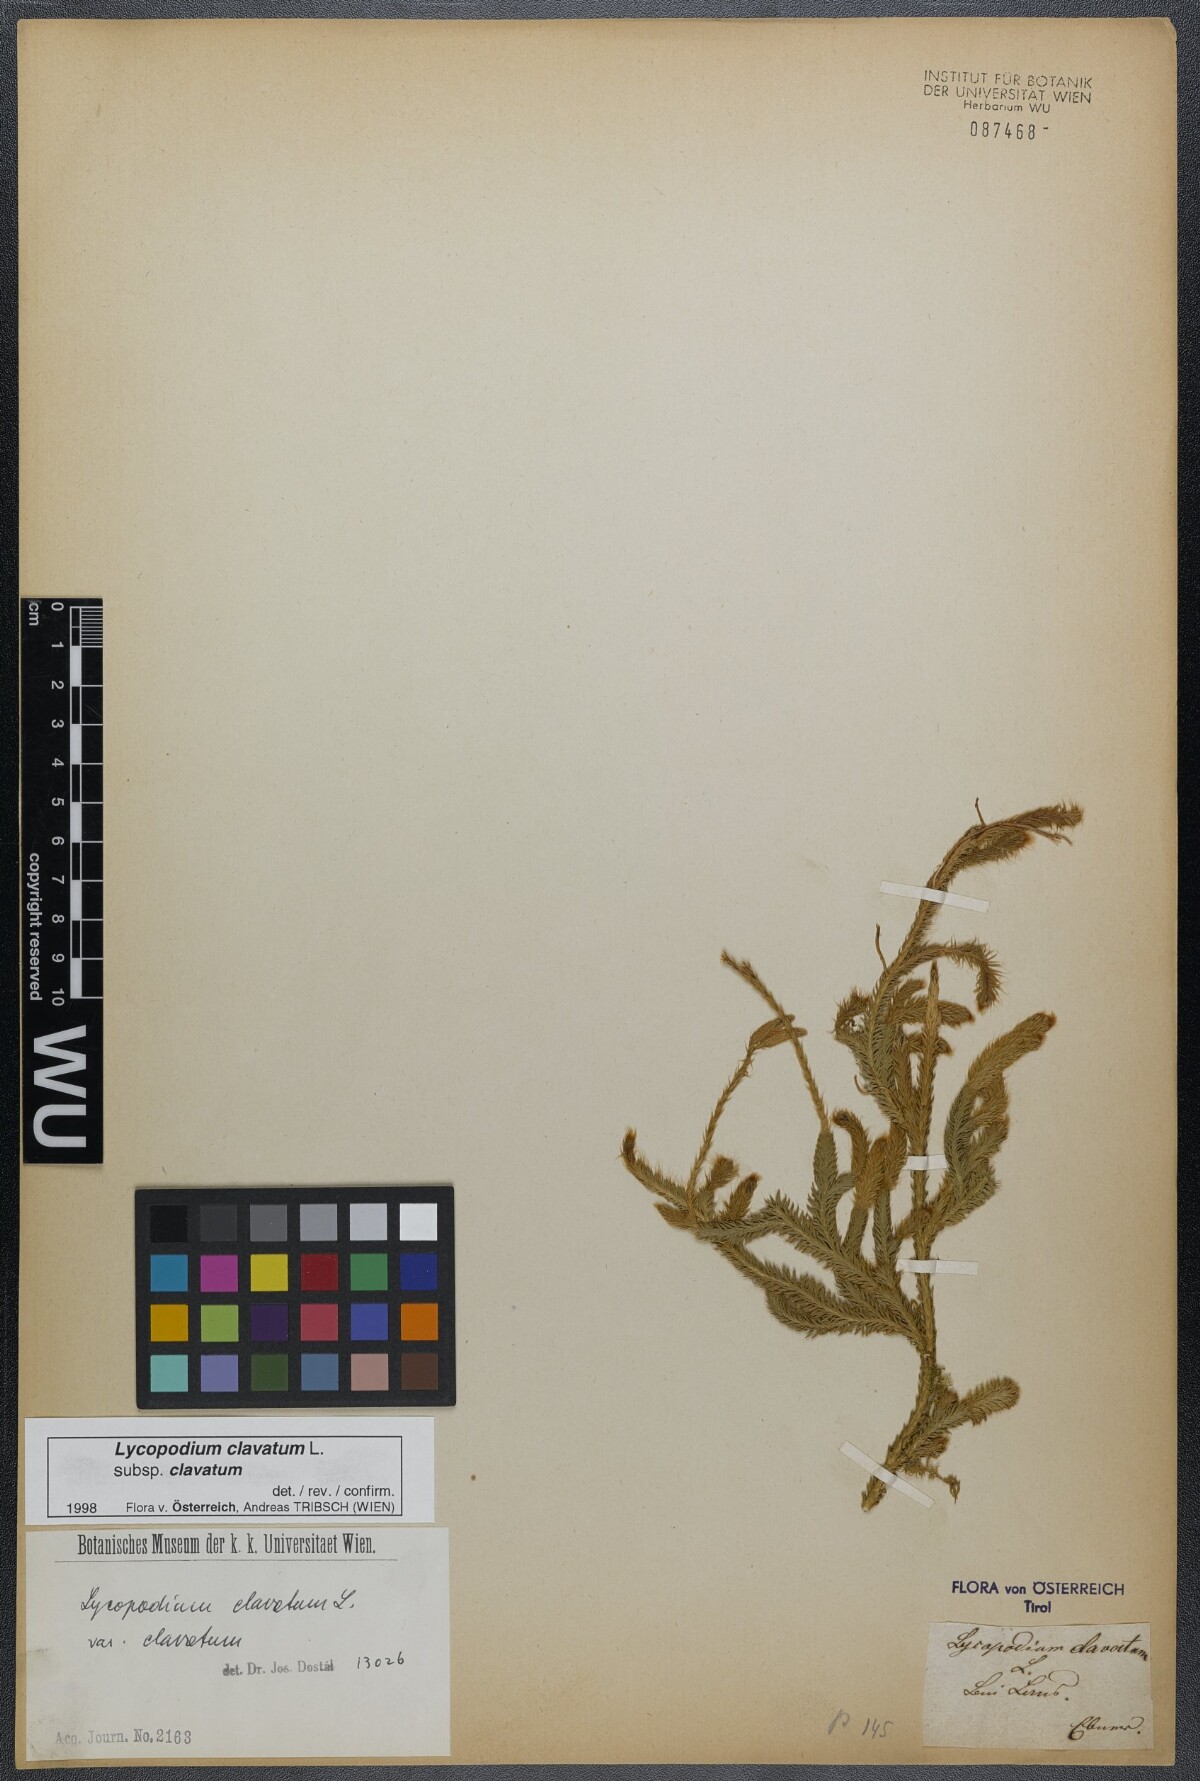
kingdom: Plantae
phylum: Tracheophyta
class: Lycopodiopsida
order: Lycopodiales
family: Lycopodiaceae
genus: Lycopodium
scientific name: Lycopodium clavatum
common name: Stag's-horn clubmoss
